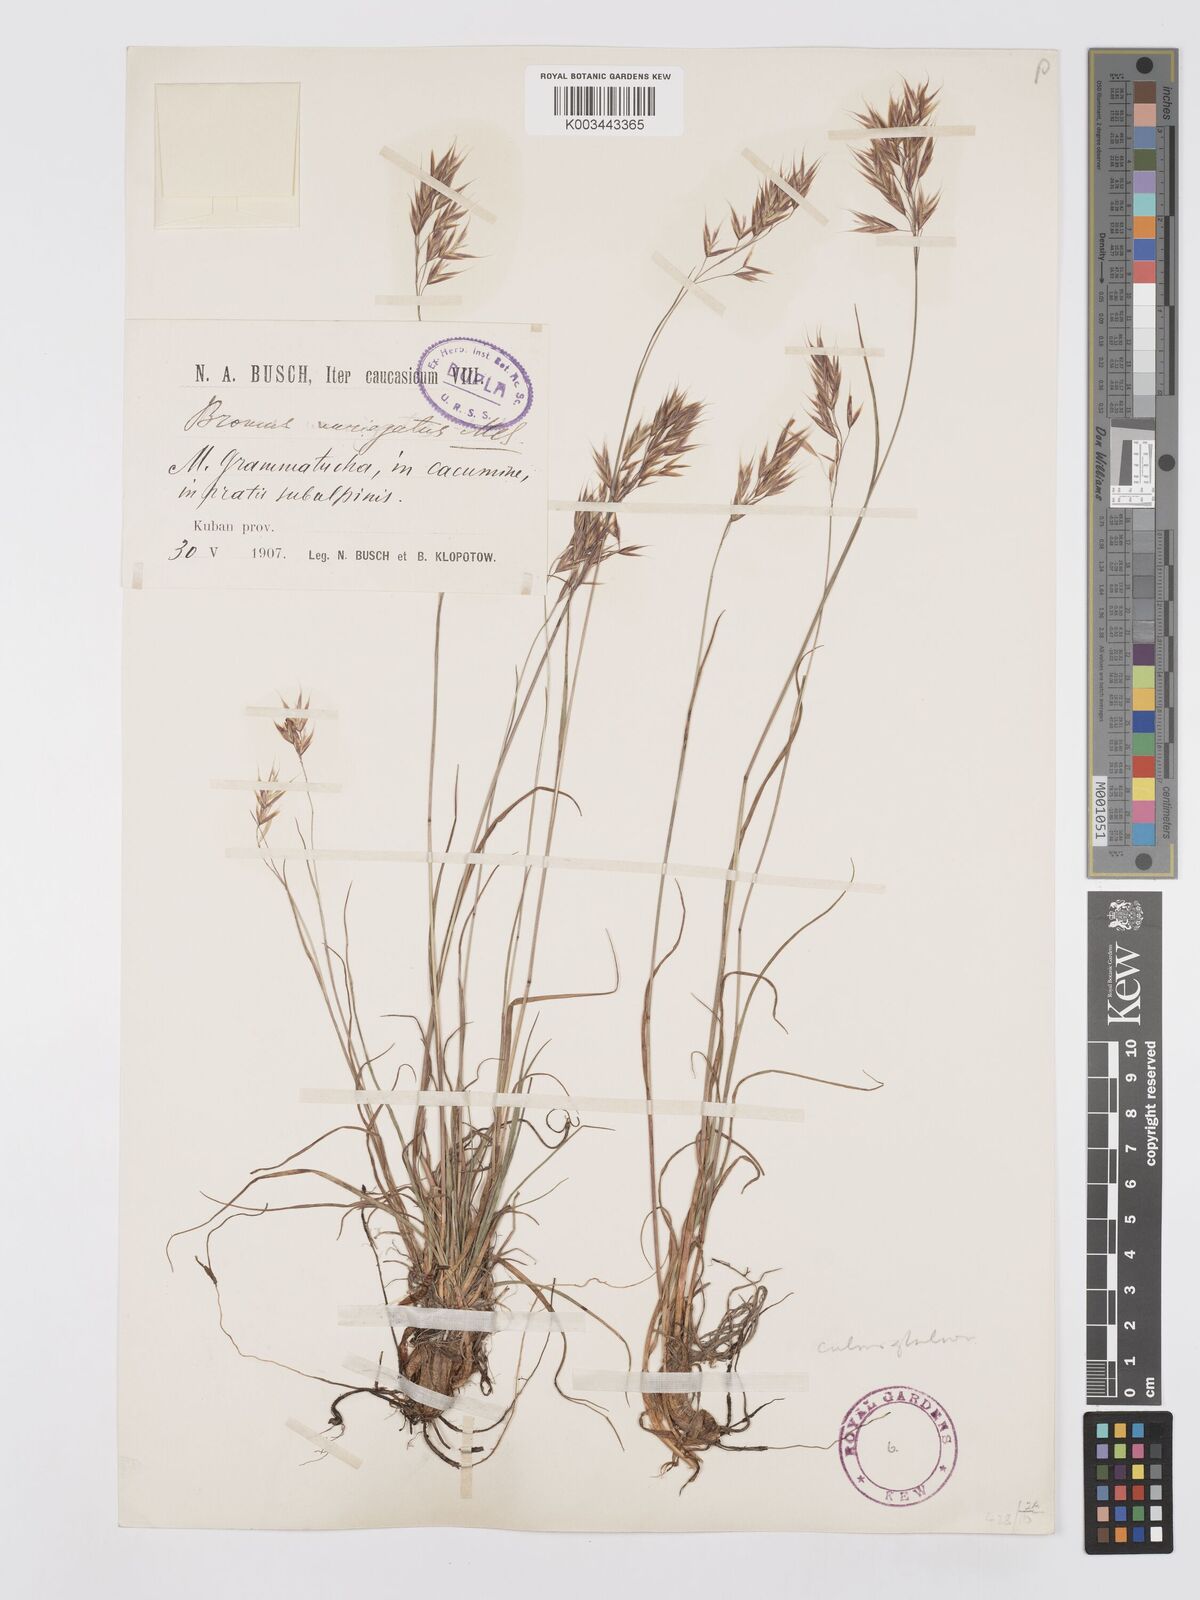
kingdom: Plantae
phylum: Tracheophyta
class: Liliopsida
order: Poales
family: Poaceae
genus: Bromus
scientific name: Bromus variegatus
